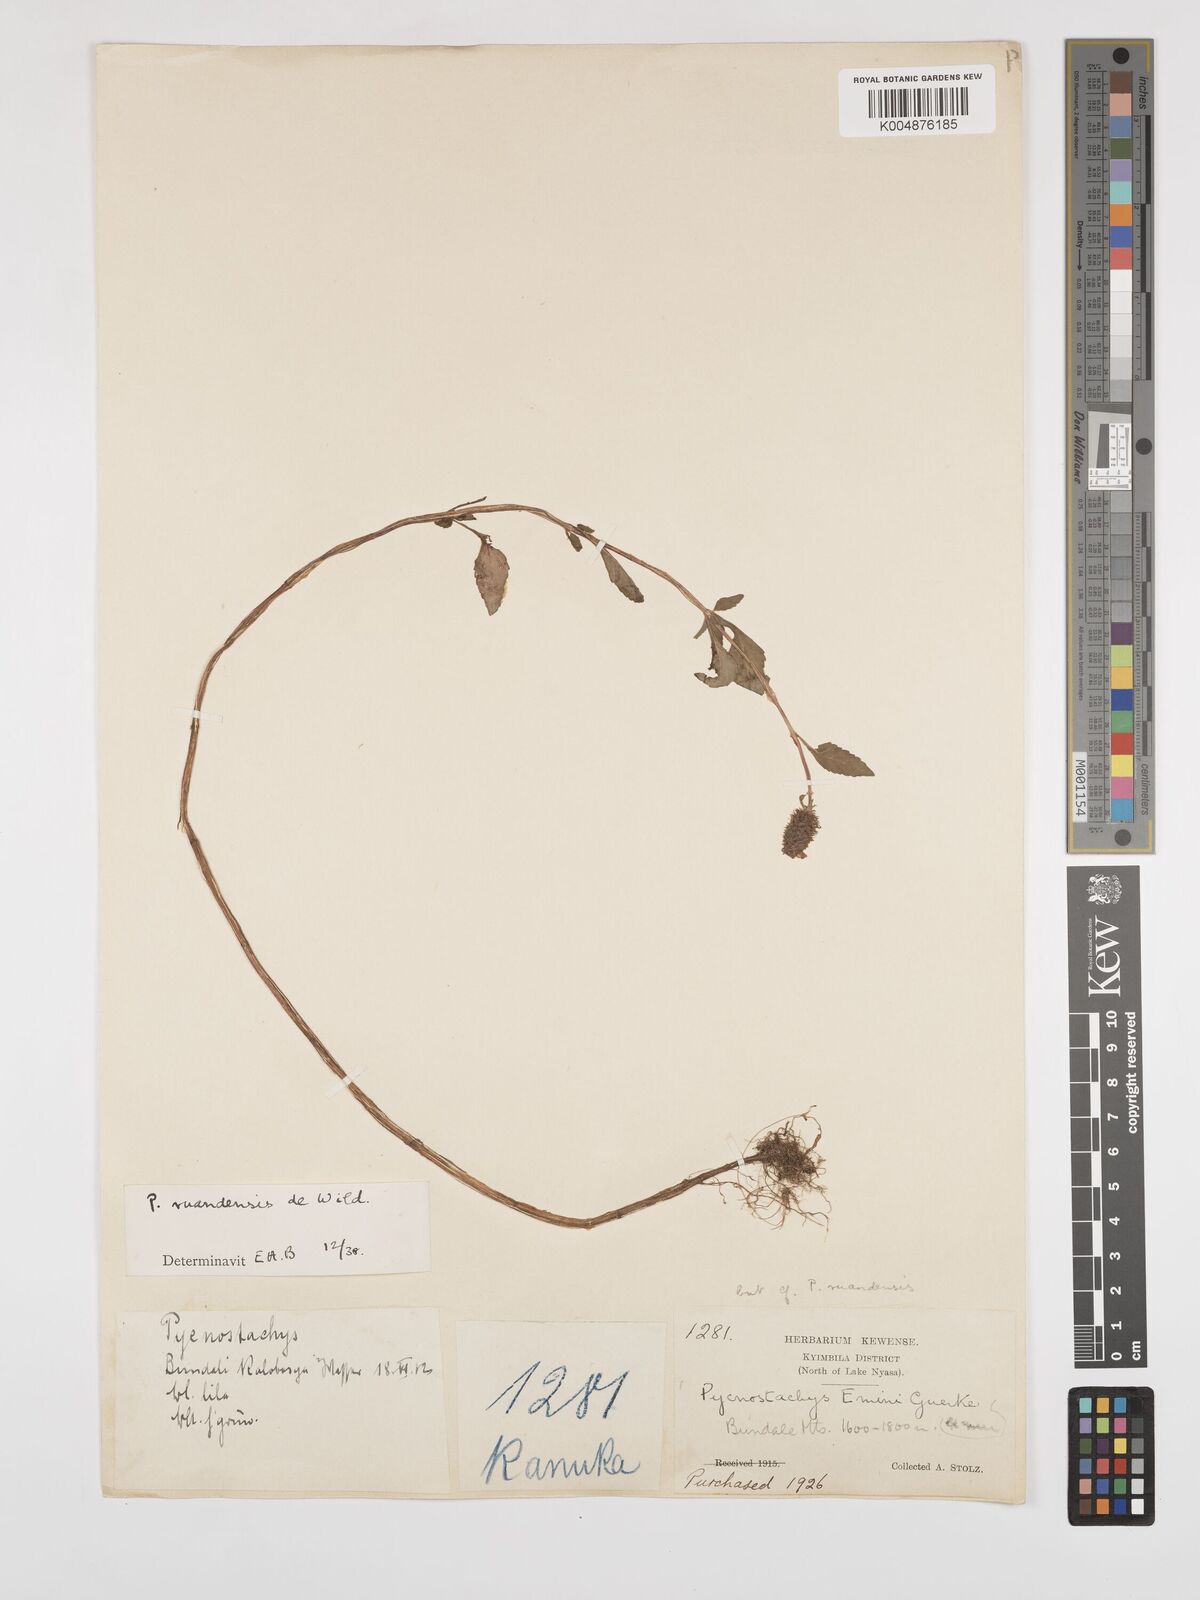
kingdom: Plantae
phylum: Tracheophyta
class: Magnoliopsida
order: Lamiales
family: Lamiaceae
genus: Coleus
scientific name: Coleus ruandensis
